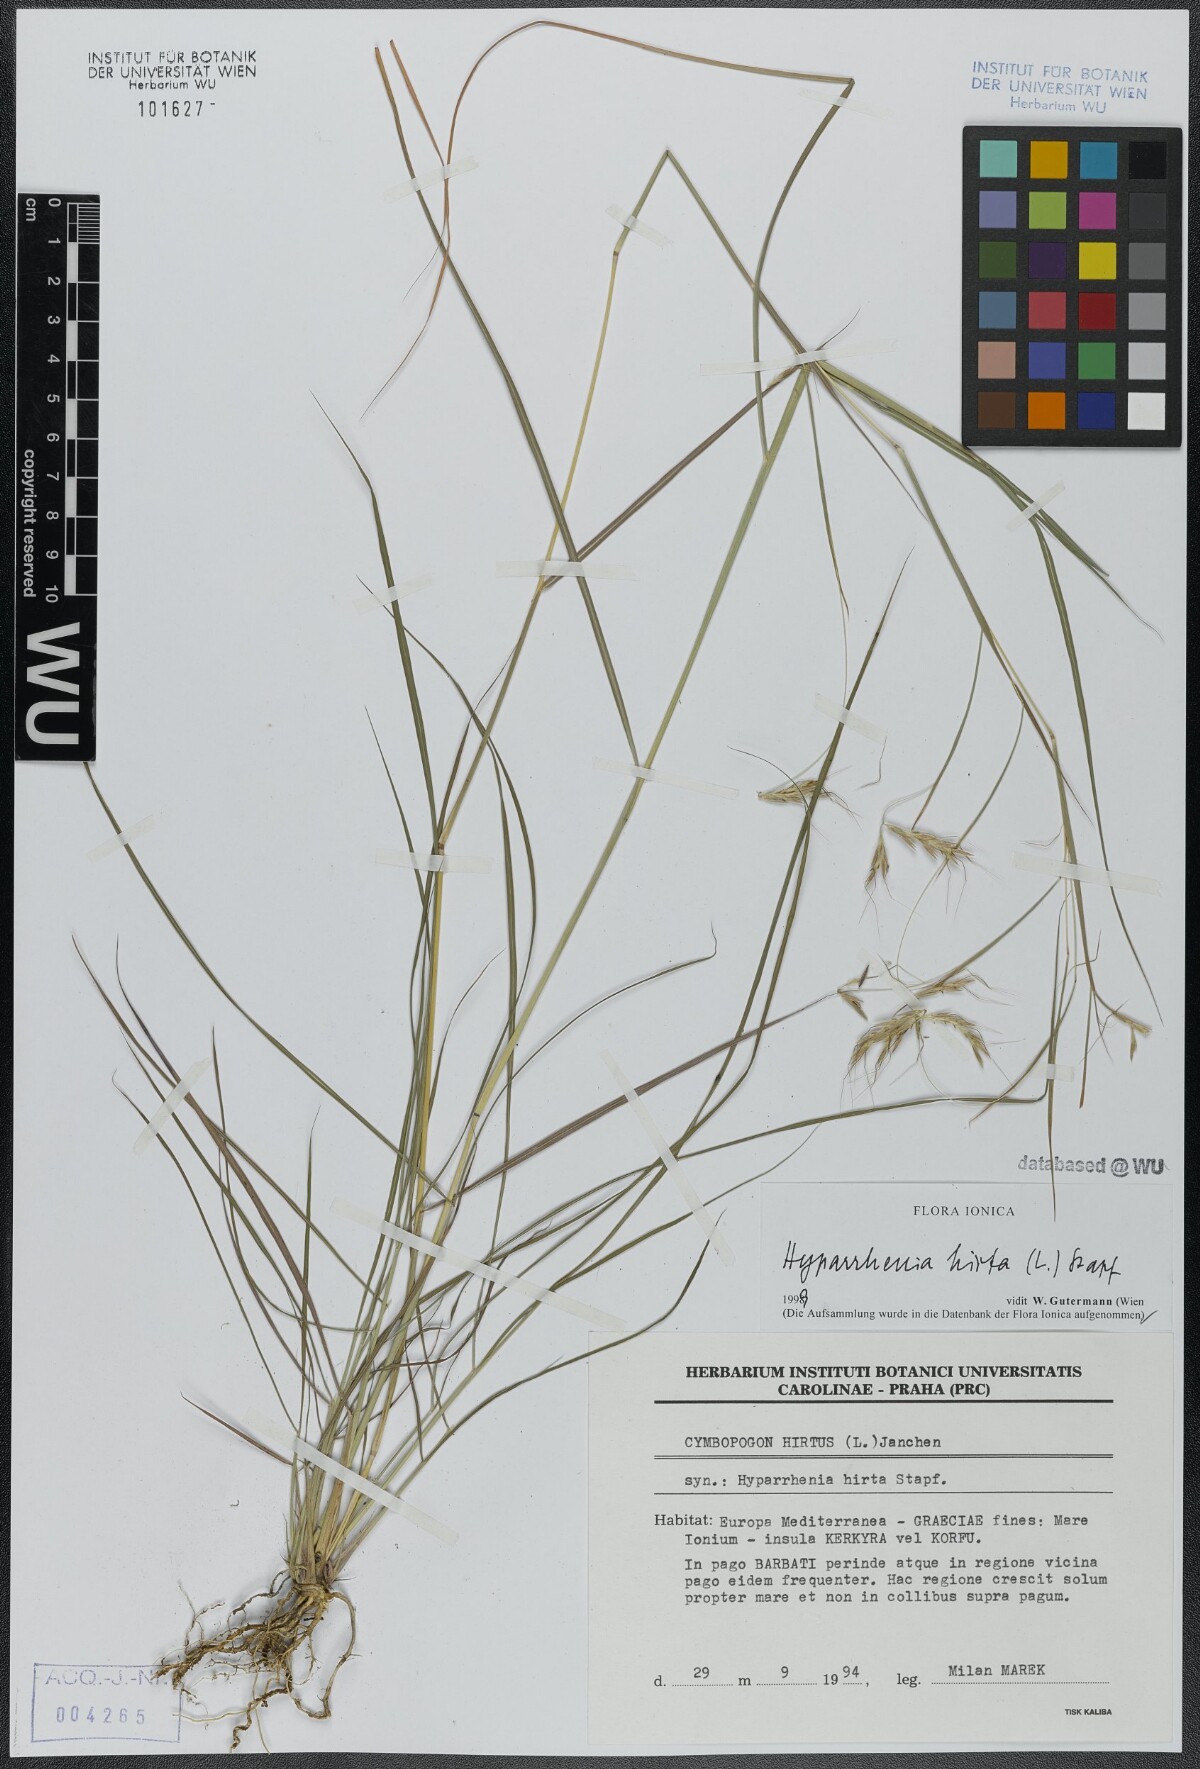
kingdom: Plantae
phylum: Tracheophyta
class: Liliopsida
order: Poales
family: Poaceae
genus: Hyparrhenia
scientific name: Hyparrhenia hirta
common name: Thatching grass
